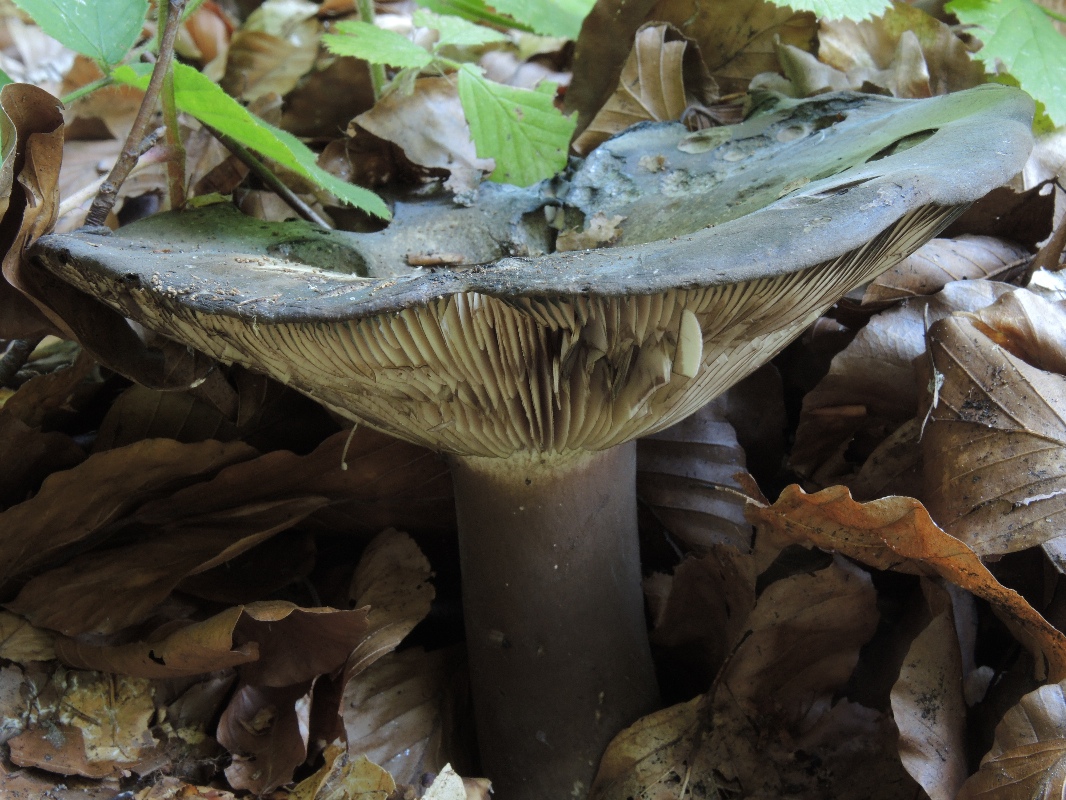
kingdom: Fungi
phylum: Basidiomycota
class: Agaricomycetes
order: Russulales
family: Russulaceae
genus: Russula
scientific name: Russula atramentosa
